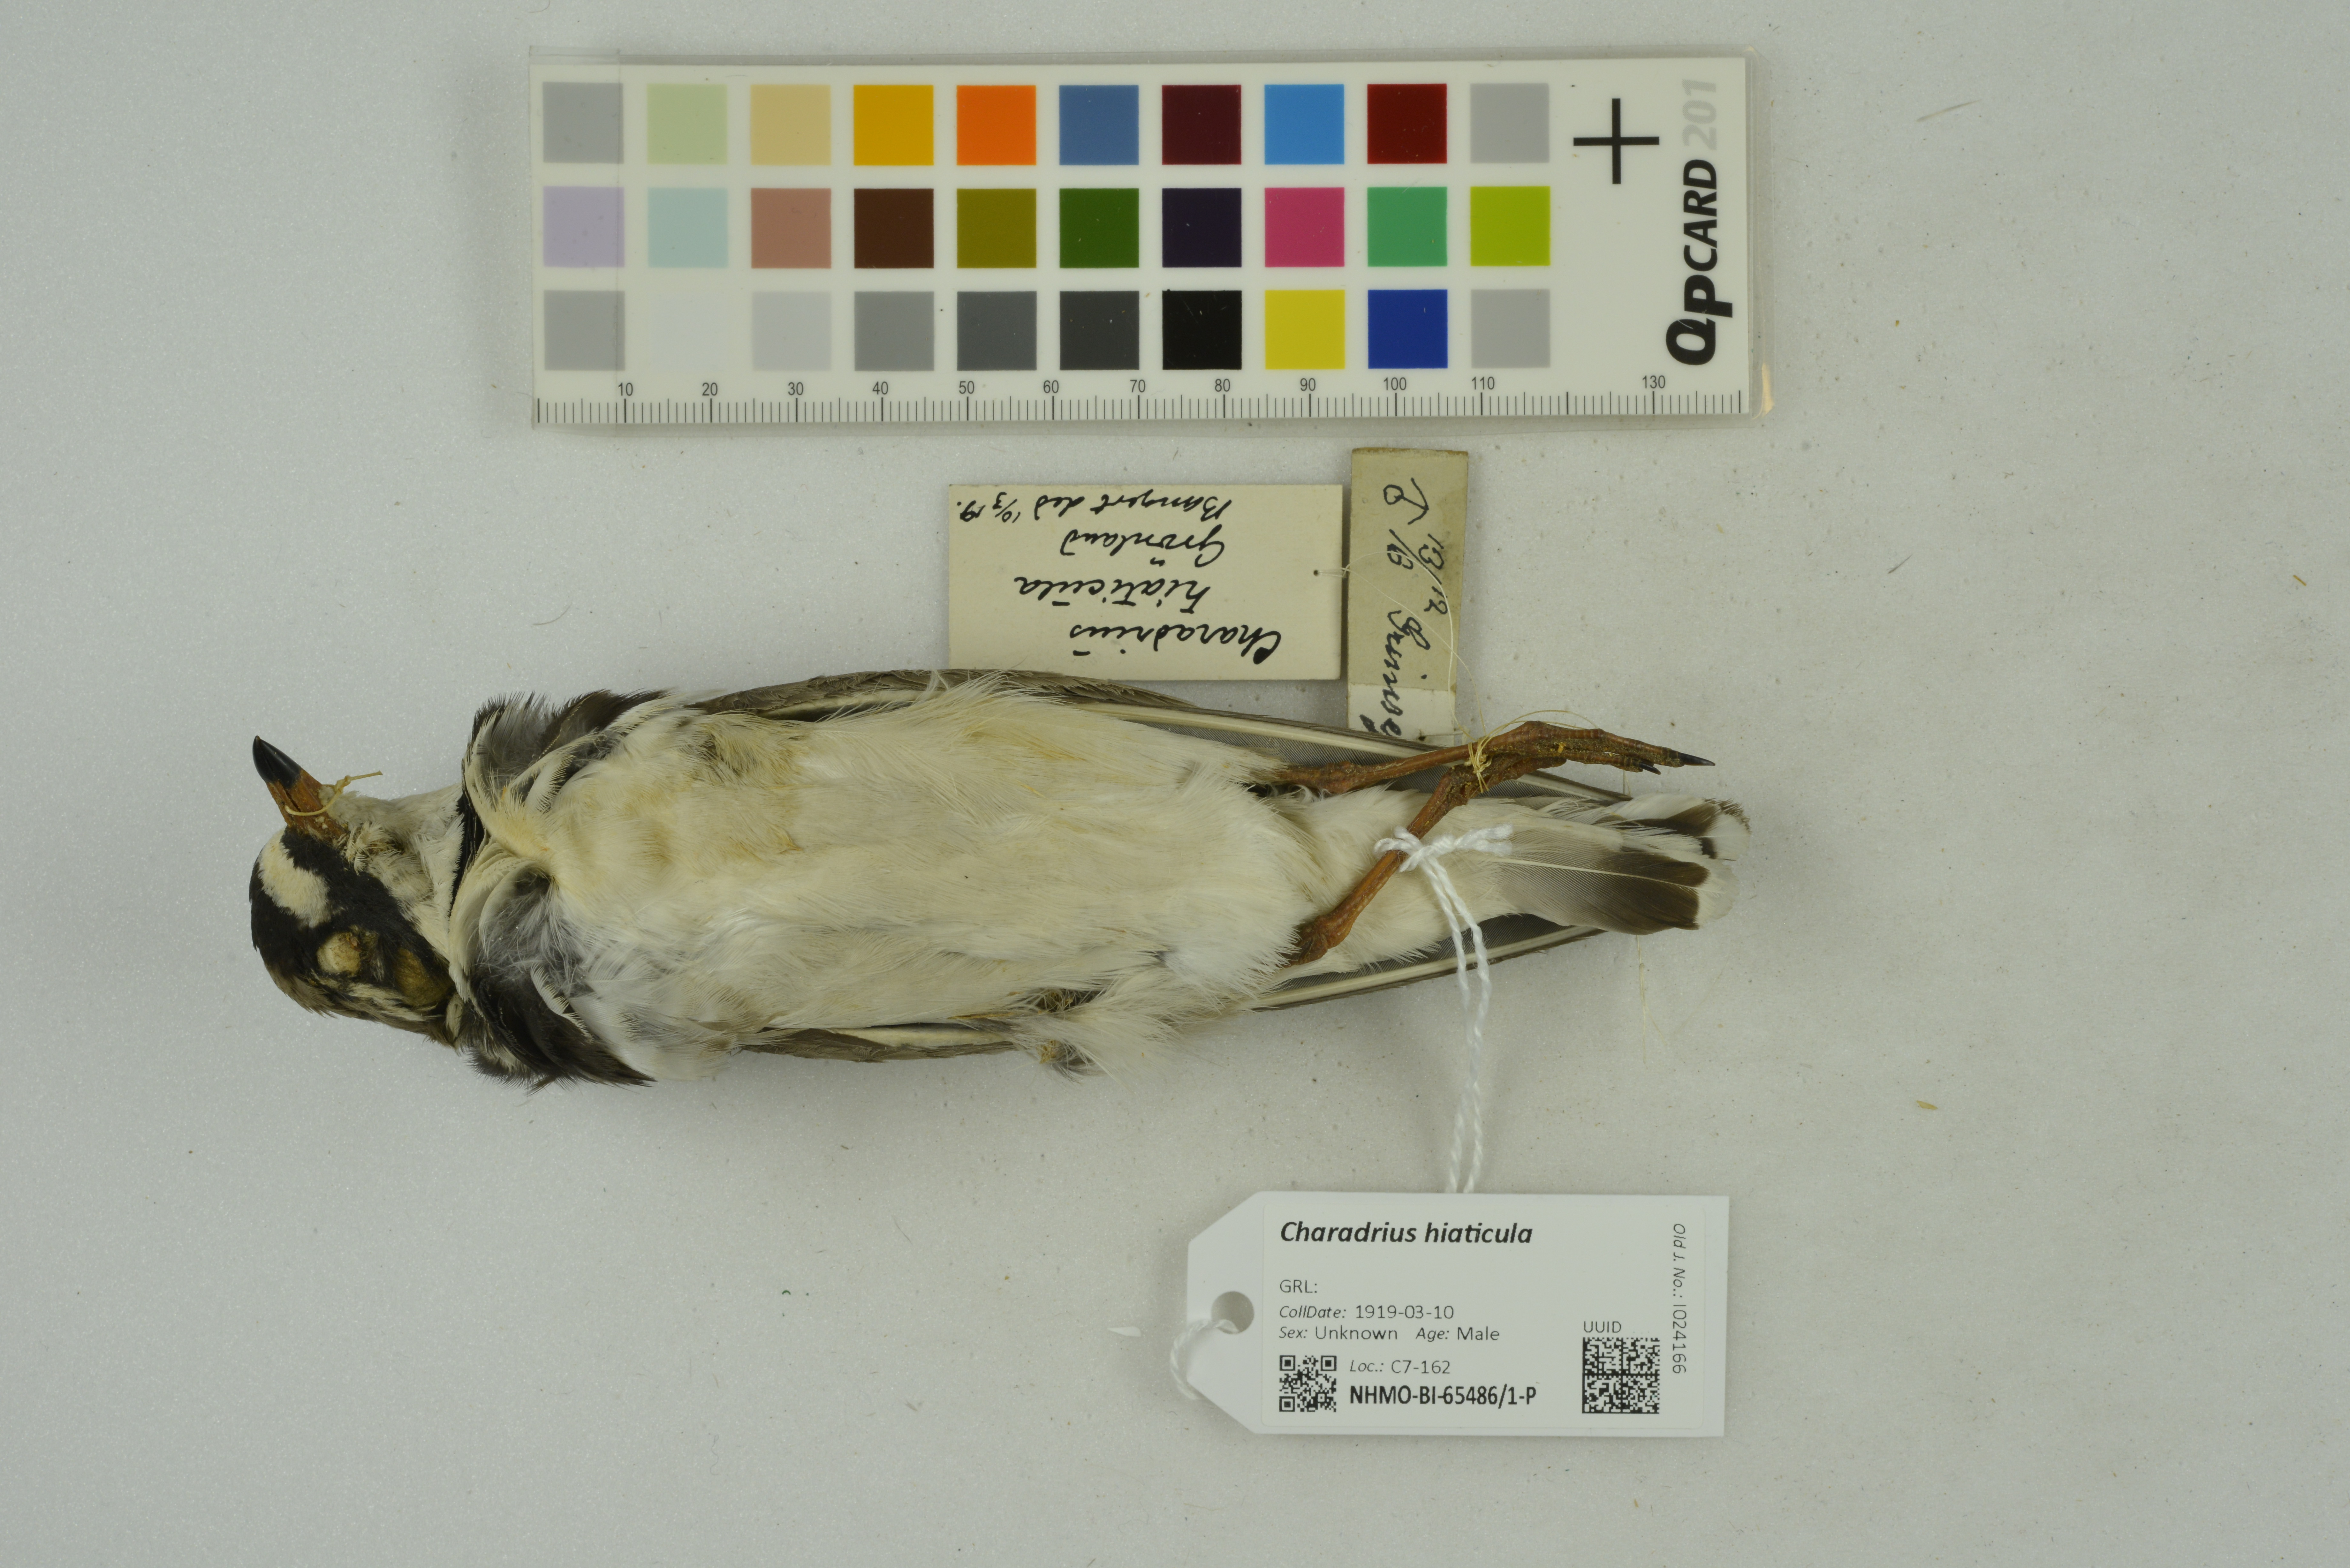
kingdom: Animalia
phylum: Chordata
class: Aves
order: Charadriiformes
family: Charadriidae
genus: Charadrius
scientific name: Charadrius hiaticula
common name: Common ringed plover
